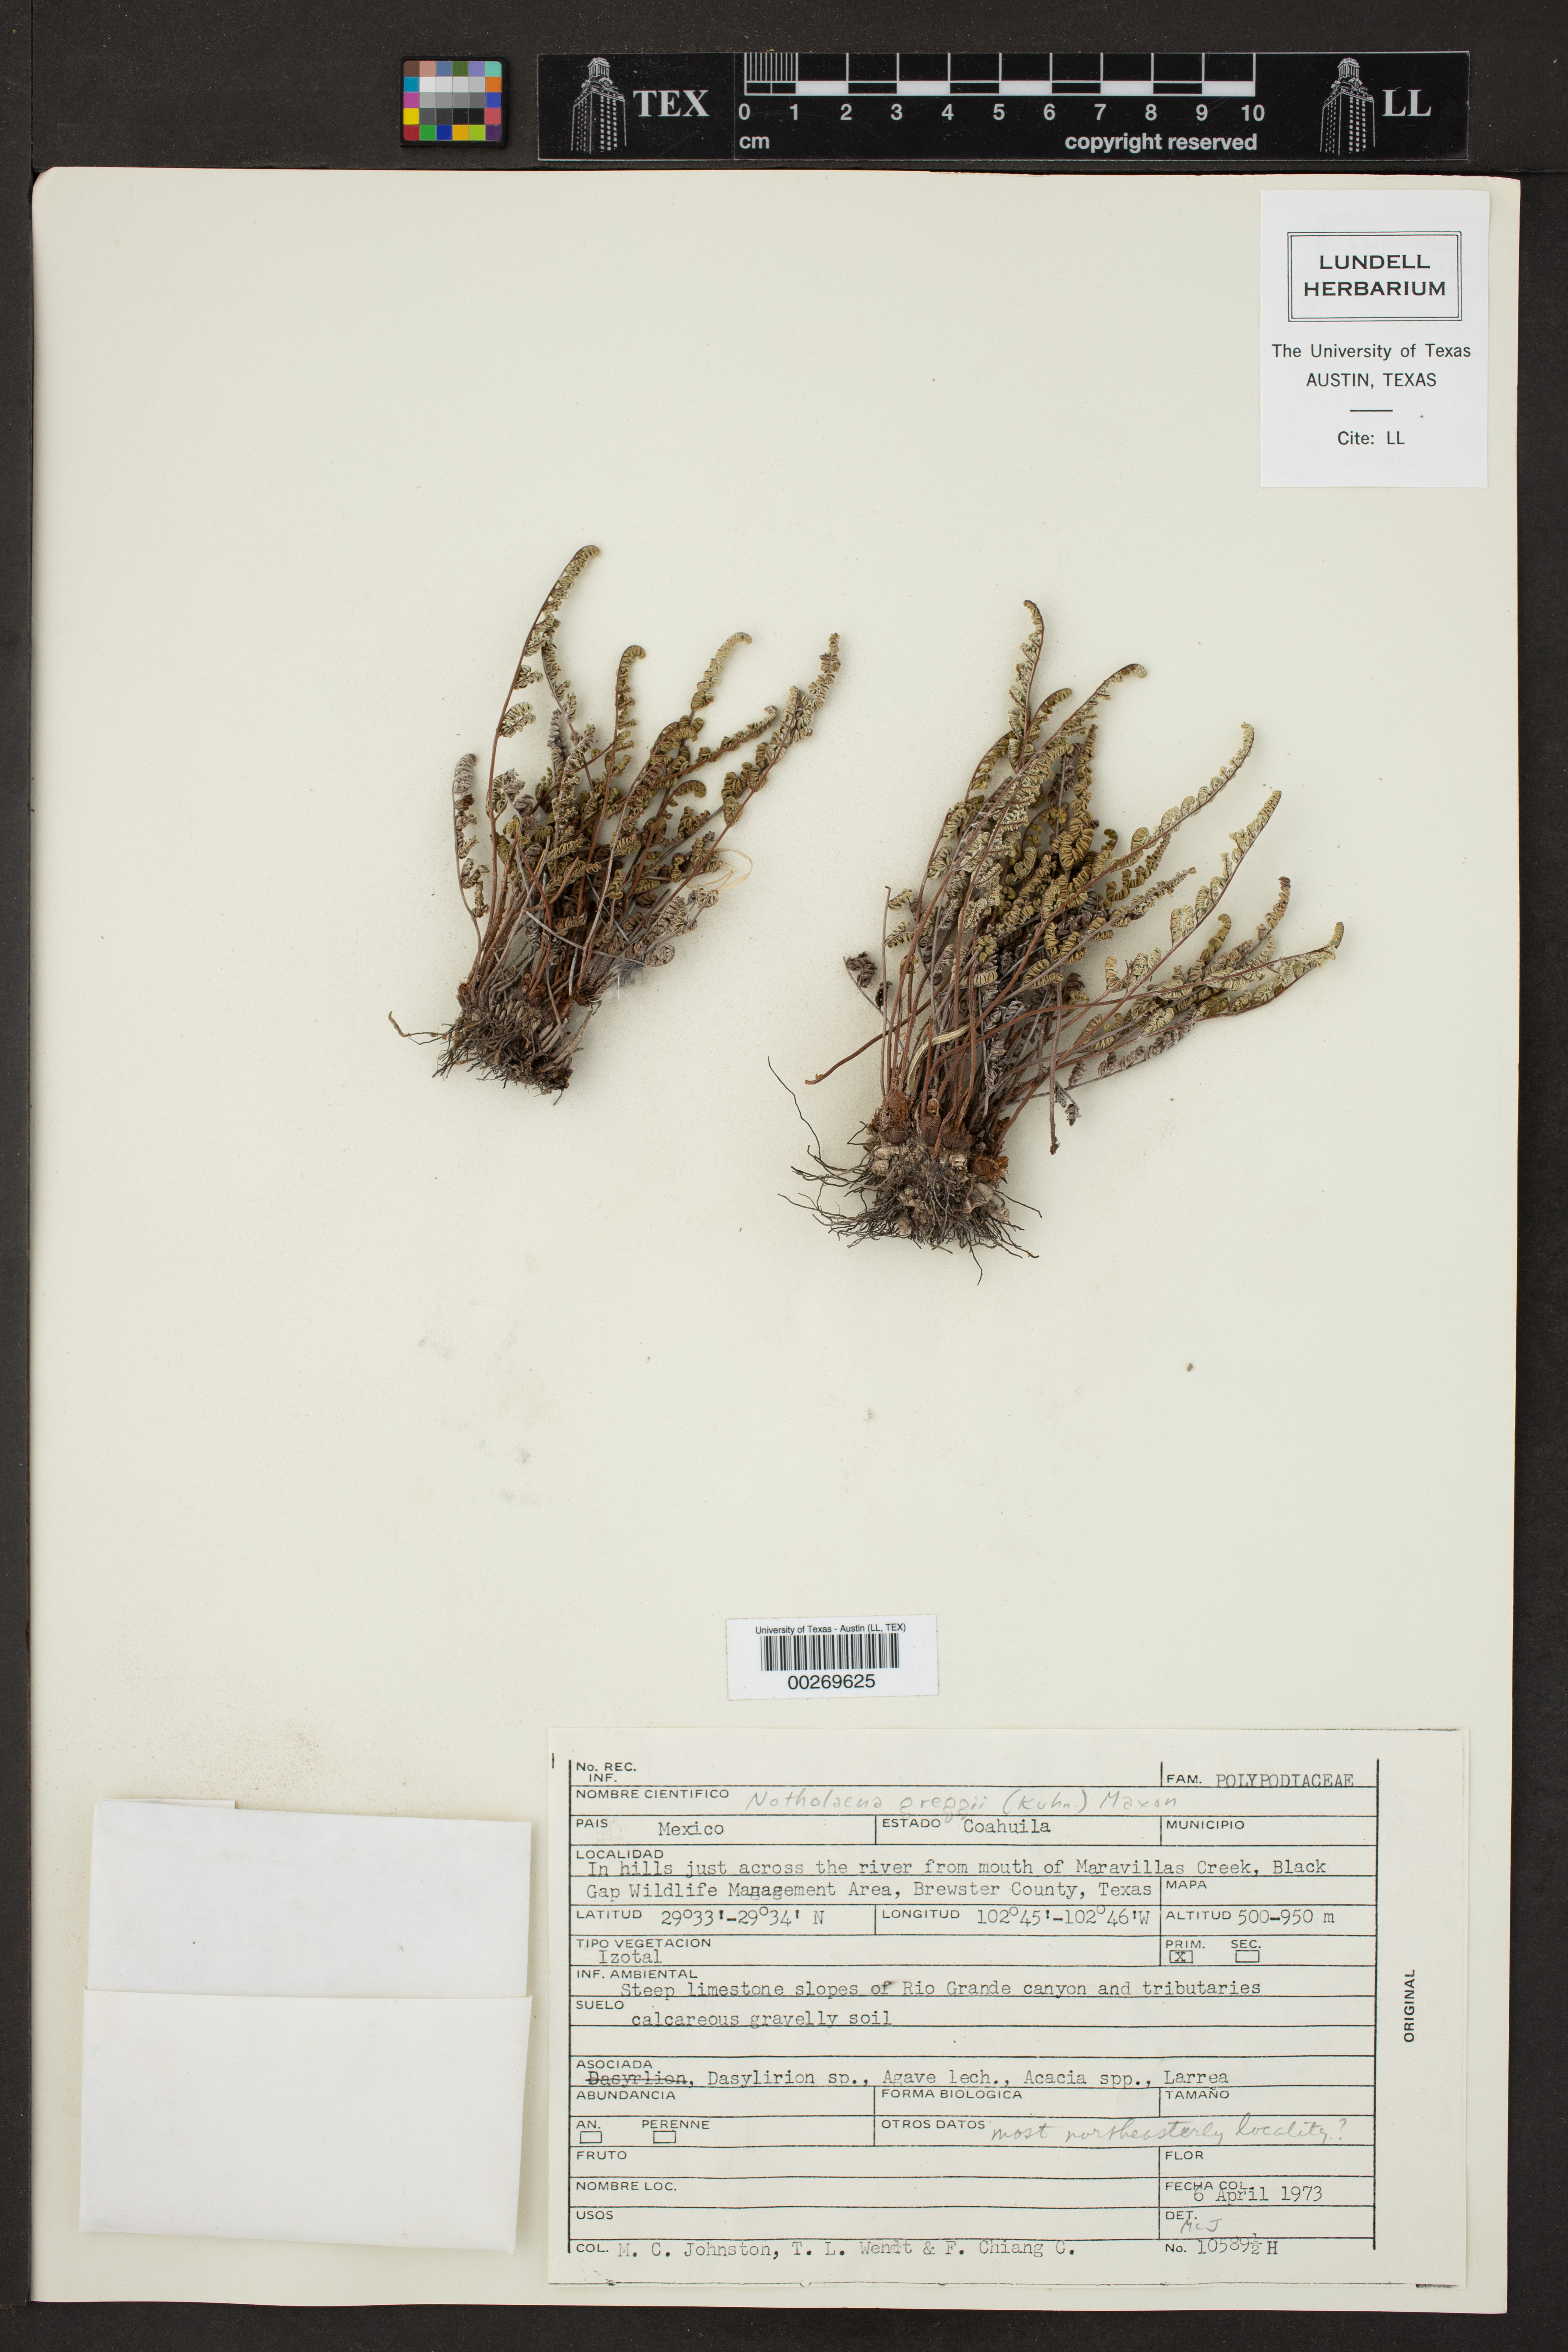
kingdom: Plantae
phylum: Tracheophyta
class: Polypodiopsida
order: Polypodiales
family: Pteridaceae
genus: Notholaena
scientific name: Notholaena greggii
